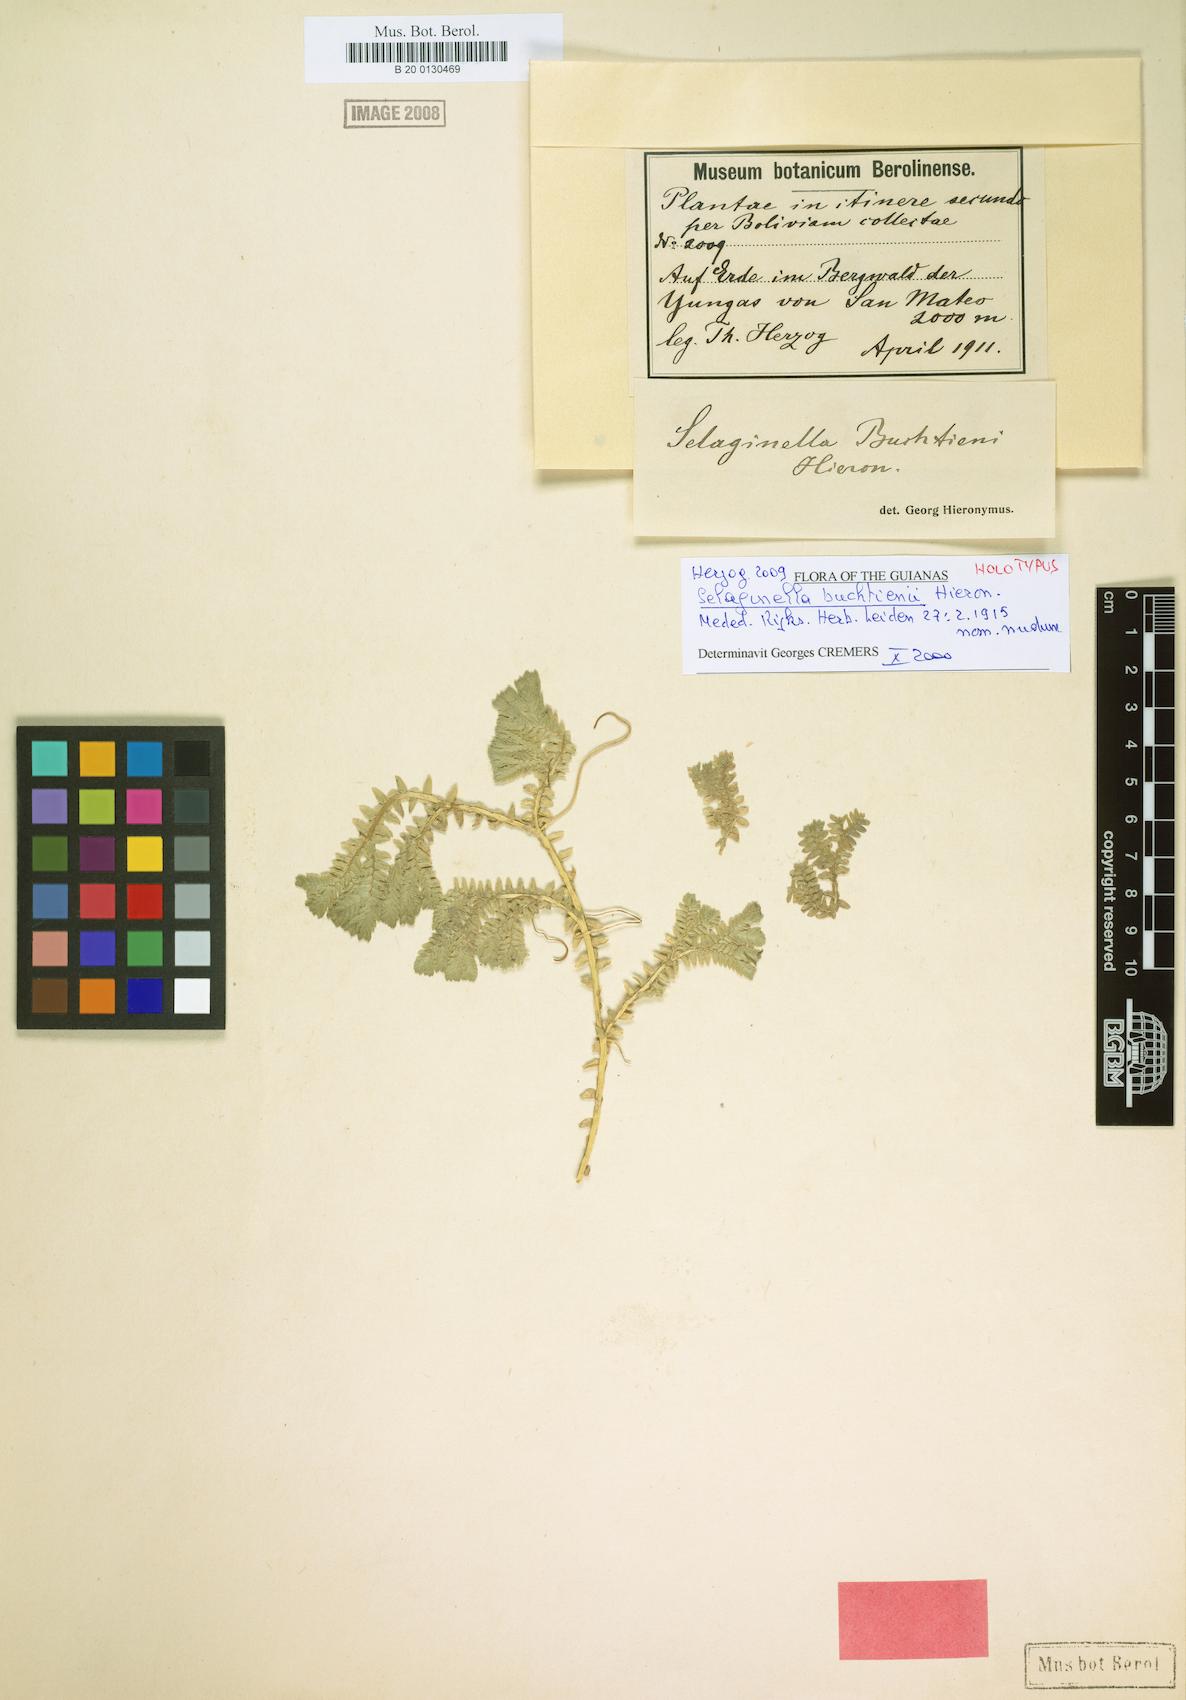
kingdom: Plantae
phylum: Tracheophyta
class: Lycopodiopsida
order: Selaginellales
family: Selaginellaceae
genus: Selaginella
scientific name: Selaginella trisulcata
